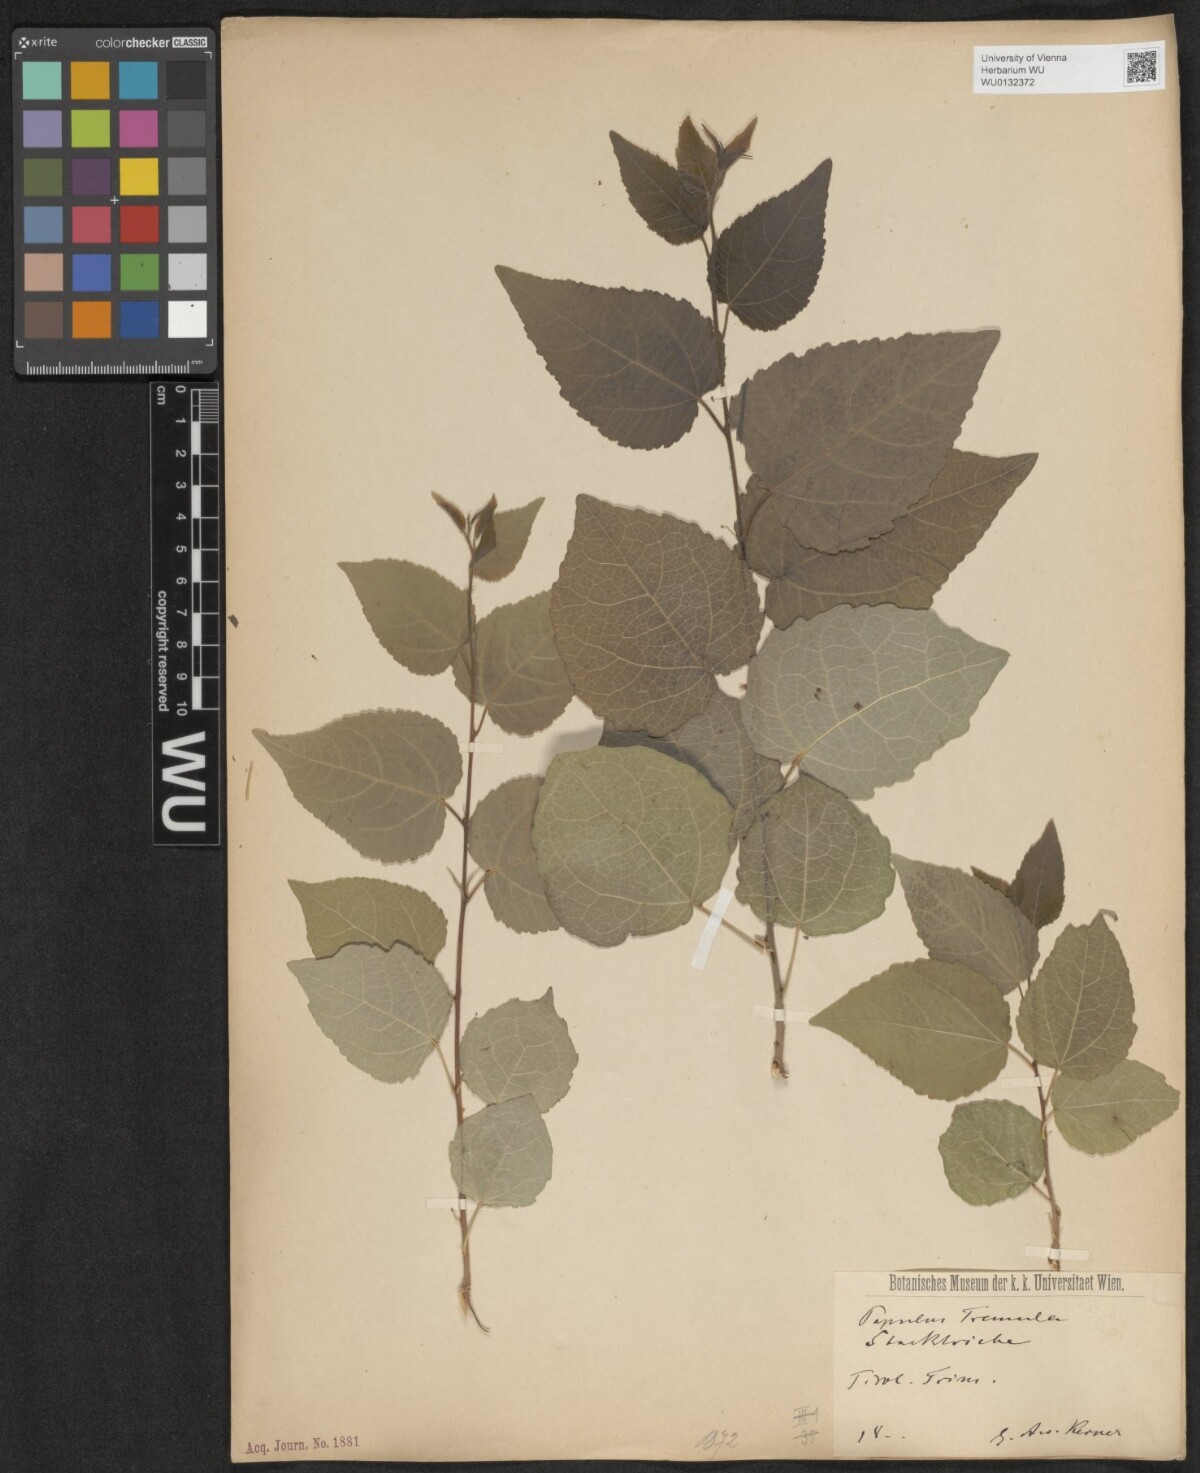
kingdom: Plantae
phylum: Tracheophyta
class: Magnoliopsida
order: Malpighiales
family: Salicaceae
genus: Populus
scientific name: Populus tremula
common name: European aspen
